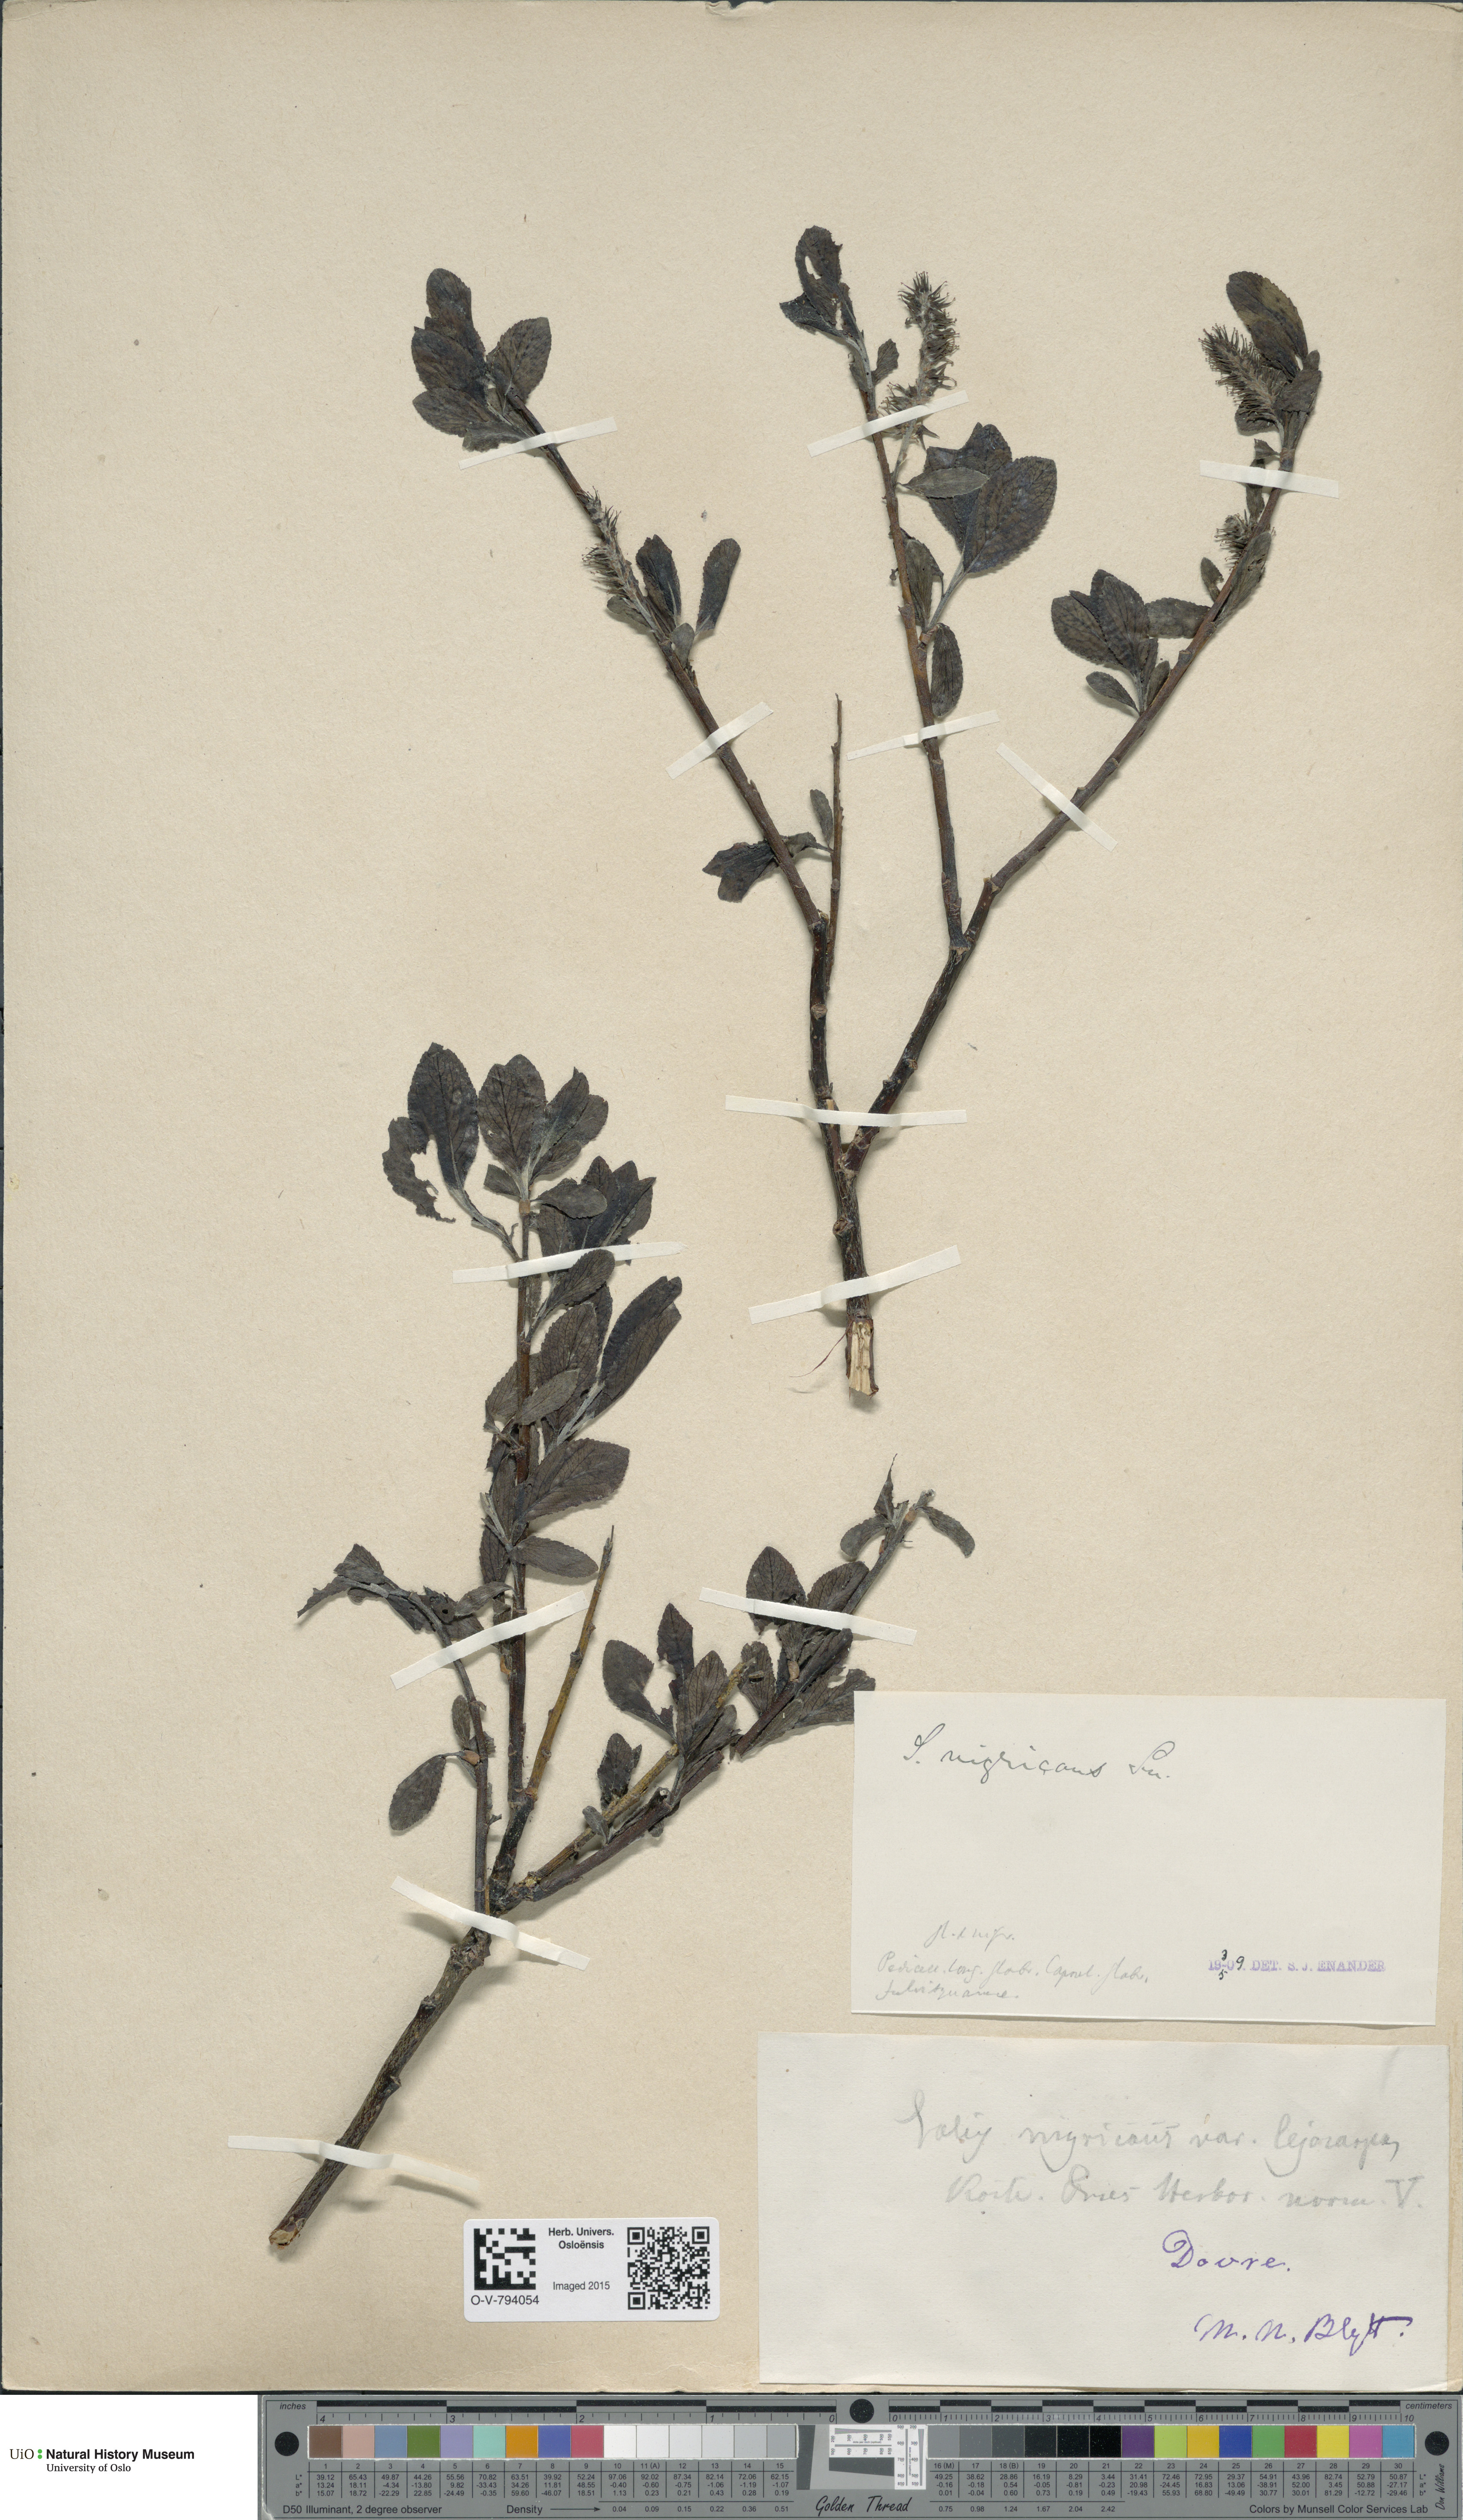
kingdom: Plantae
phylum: Tracheophyta
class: Magnoliopsida
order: Malpighiales
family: Salicaceae
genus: Salix
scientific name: Salix myrsinifolia
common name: Dark-leaved willow
